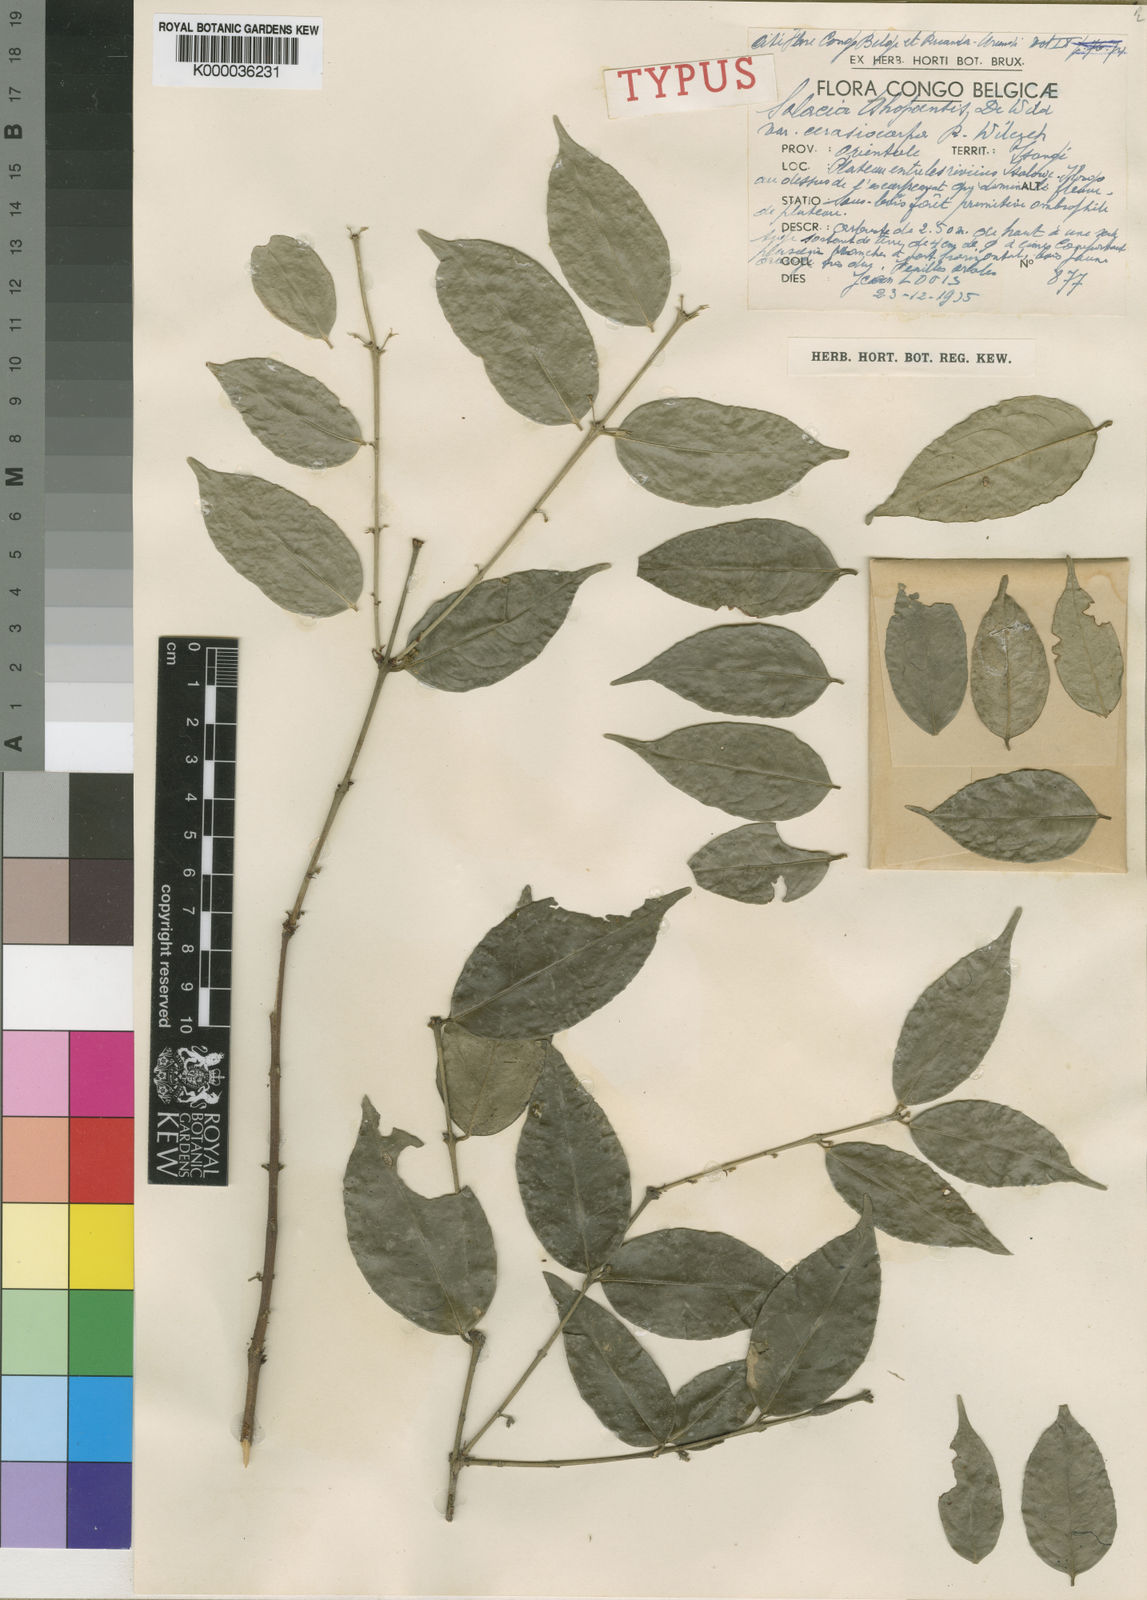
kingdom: Plantae
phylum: Tracheophyta
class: Magnoliopsida
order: Celastrales
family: Celastraceae
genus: Salacia
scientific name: Salacia
